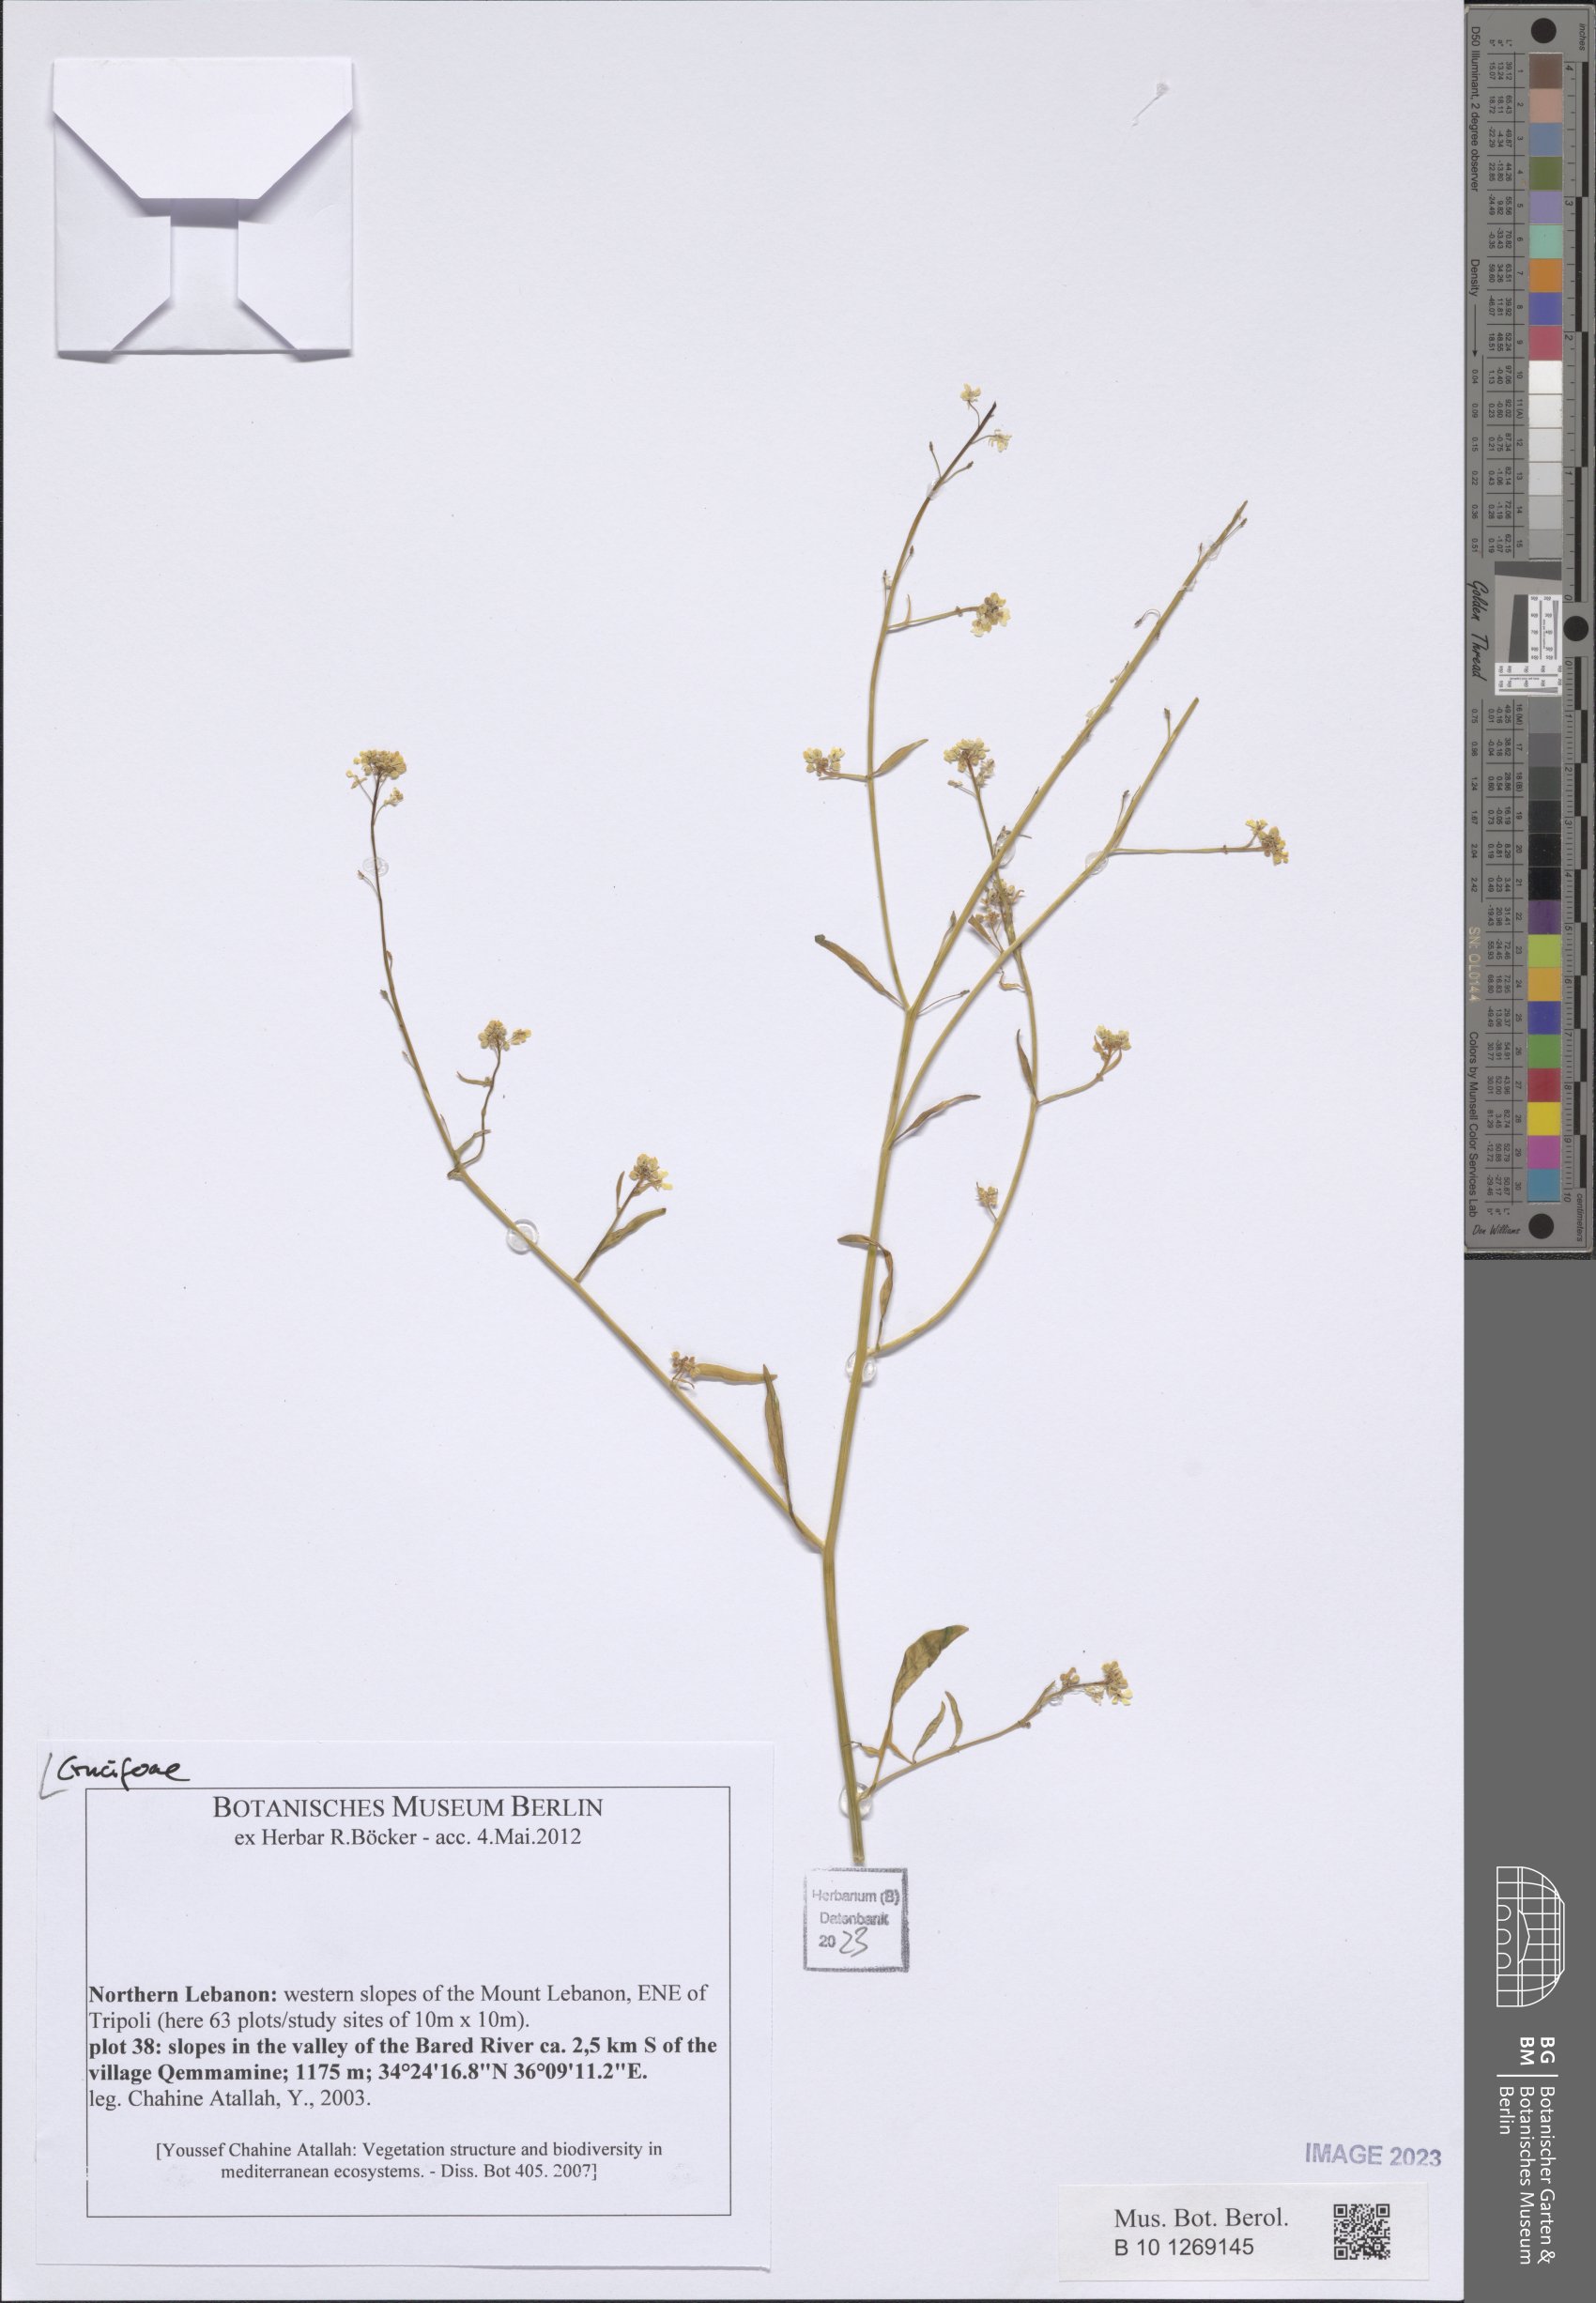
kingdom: Plantae
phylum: Tracheophyta
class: Magnoliopsida
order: Brassicales
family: Brassicaceae
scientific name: Brassicaceae
